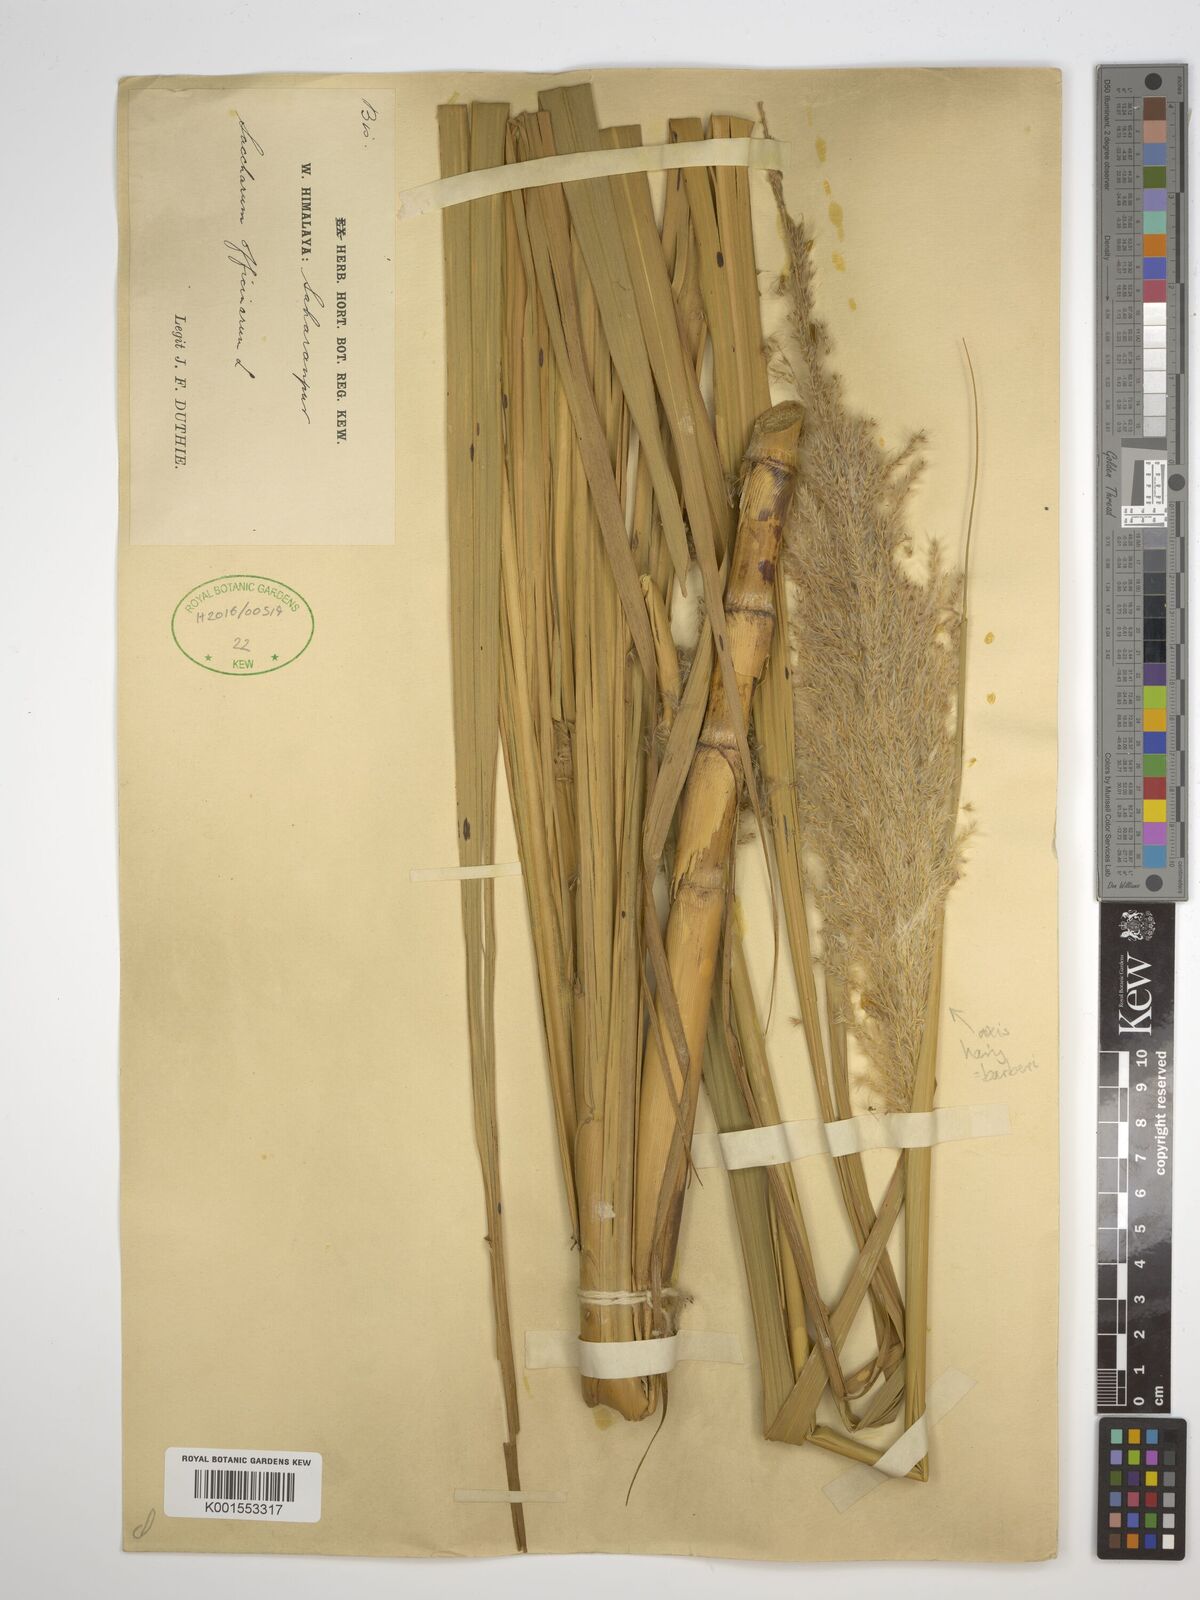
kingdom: Plantae
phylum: Tracheophyta
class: Liliopsida
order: Poales
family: Poaceae
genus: Saccharum
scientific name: Saccharum officinarum
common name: Sugarcane
